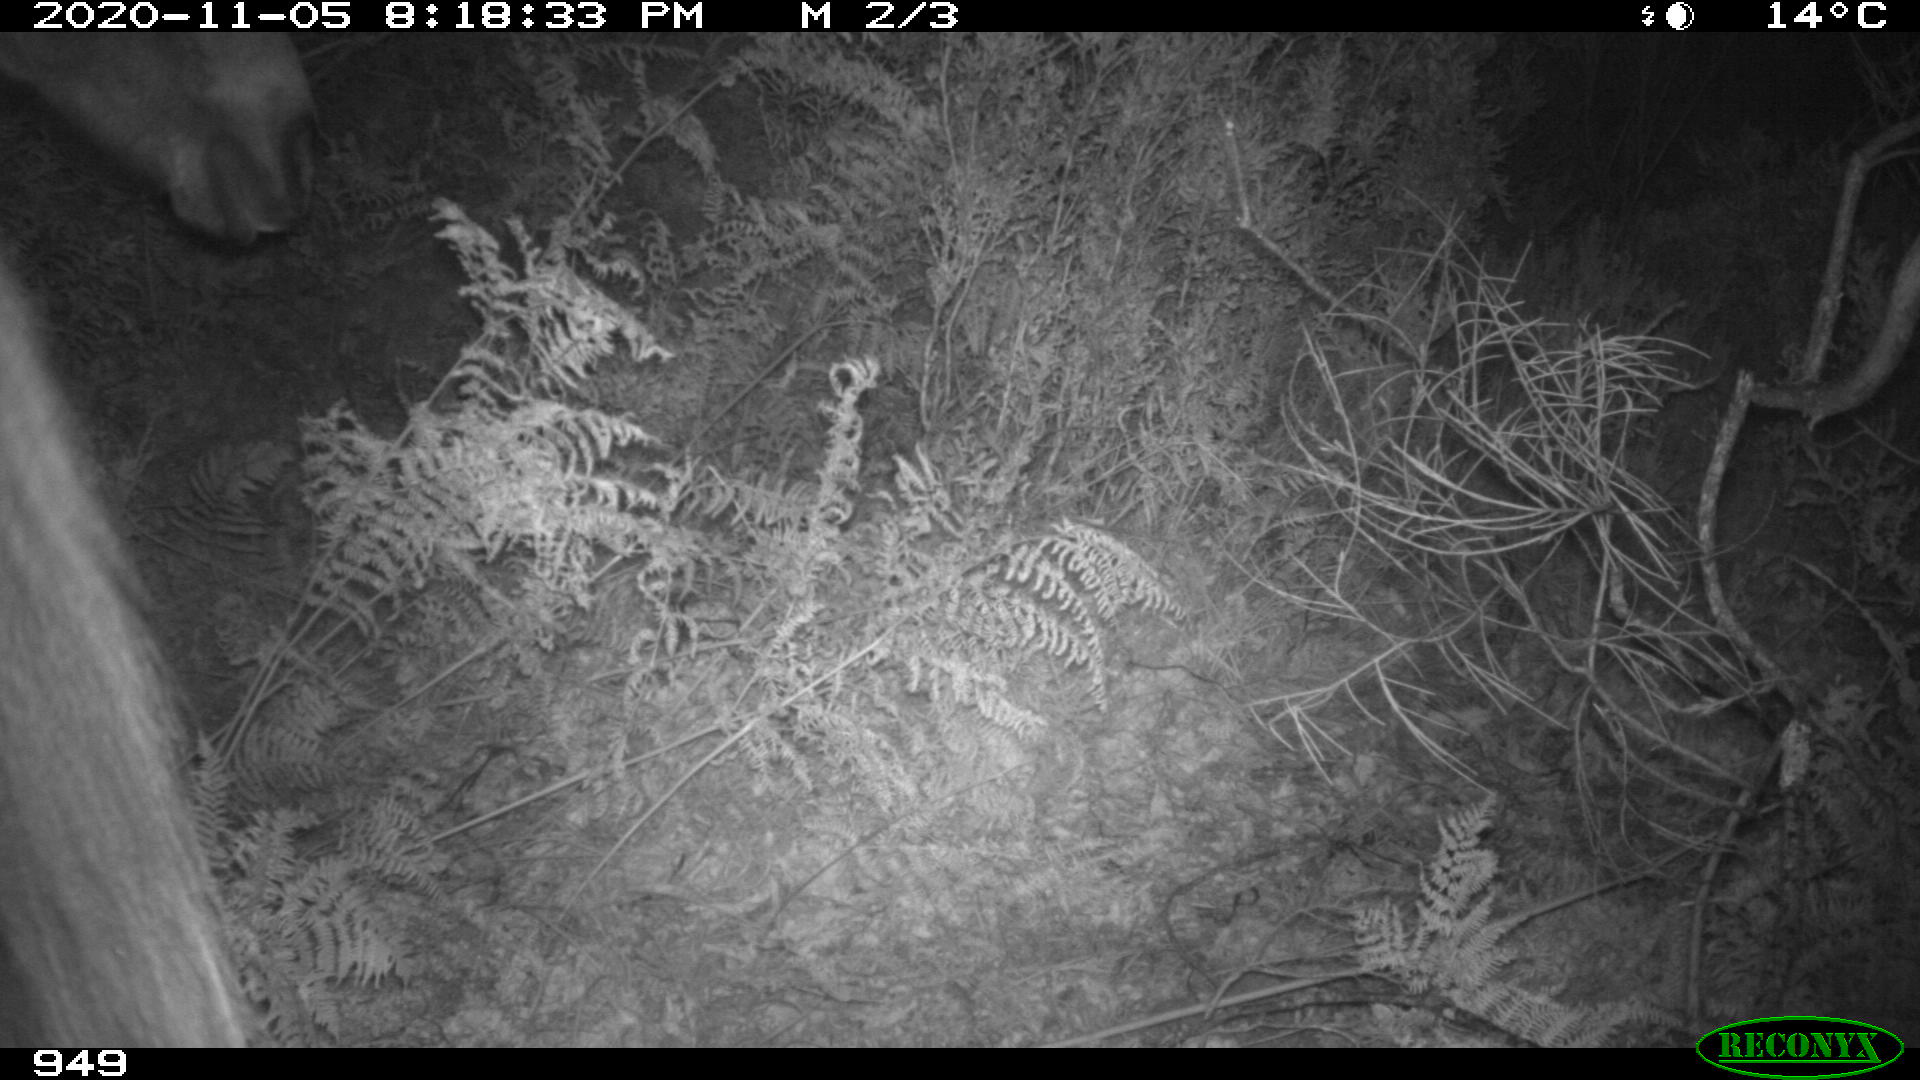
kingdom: Animalia
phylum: Chordata
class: Mammalia
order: Perissodactyla
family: Equidae
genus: Equus
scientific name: Equus caballus
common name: Horse
